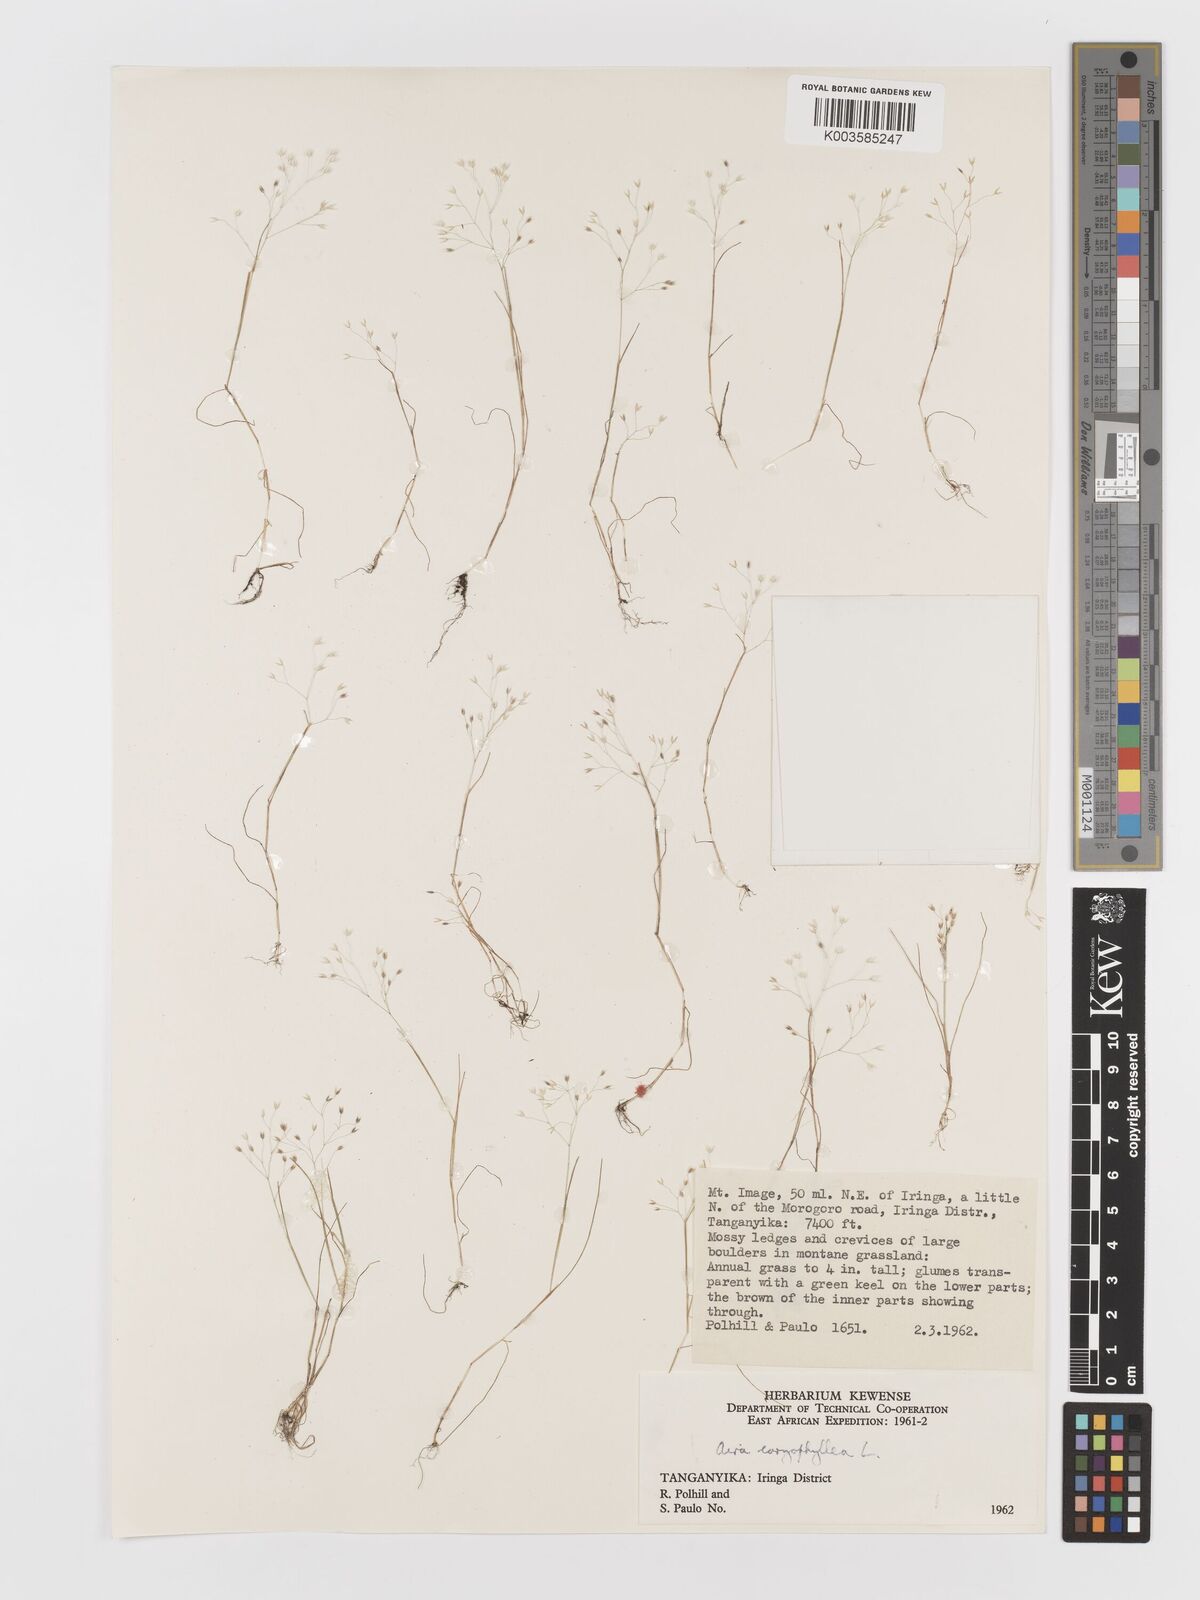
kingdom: Plantae
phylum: Tracheophyta
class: Liliopsida
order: Poales
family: Poaceae
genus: Aira
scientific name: Aira caryophyllea
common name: Silver hairgrass
